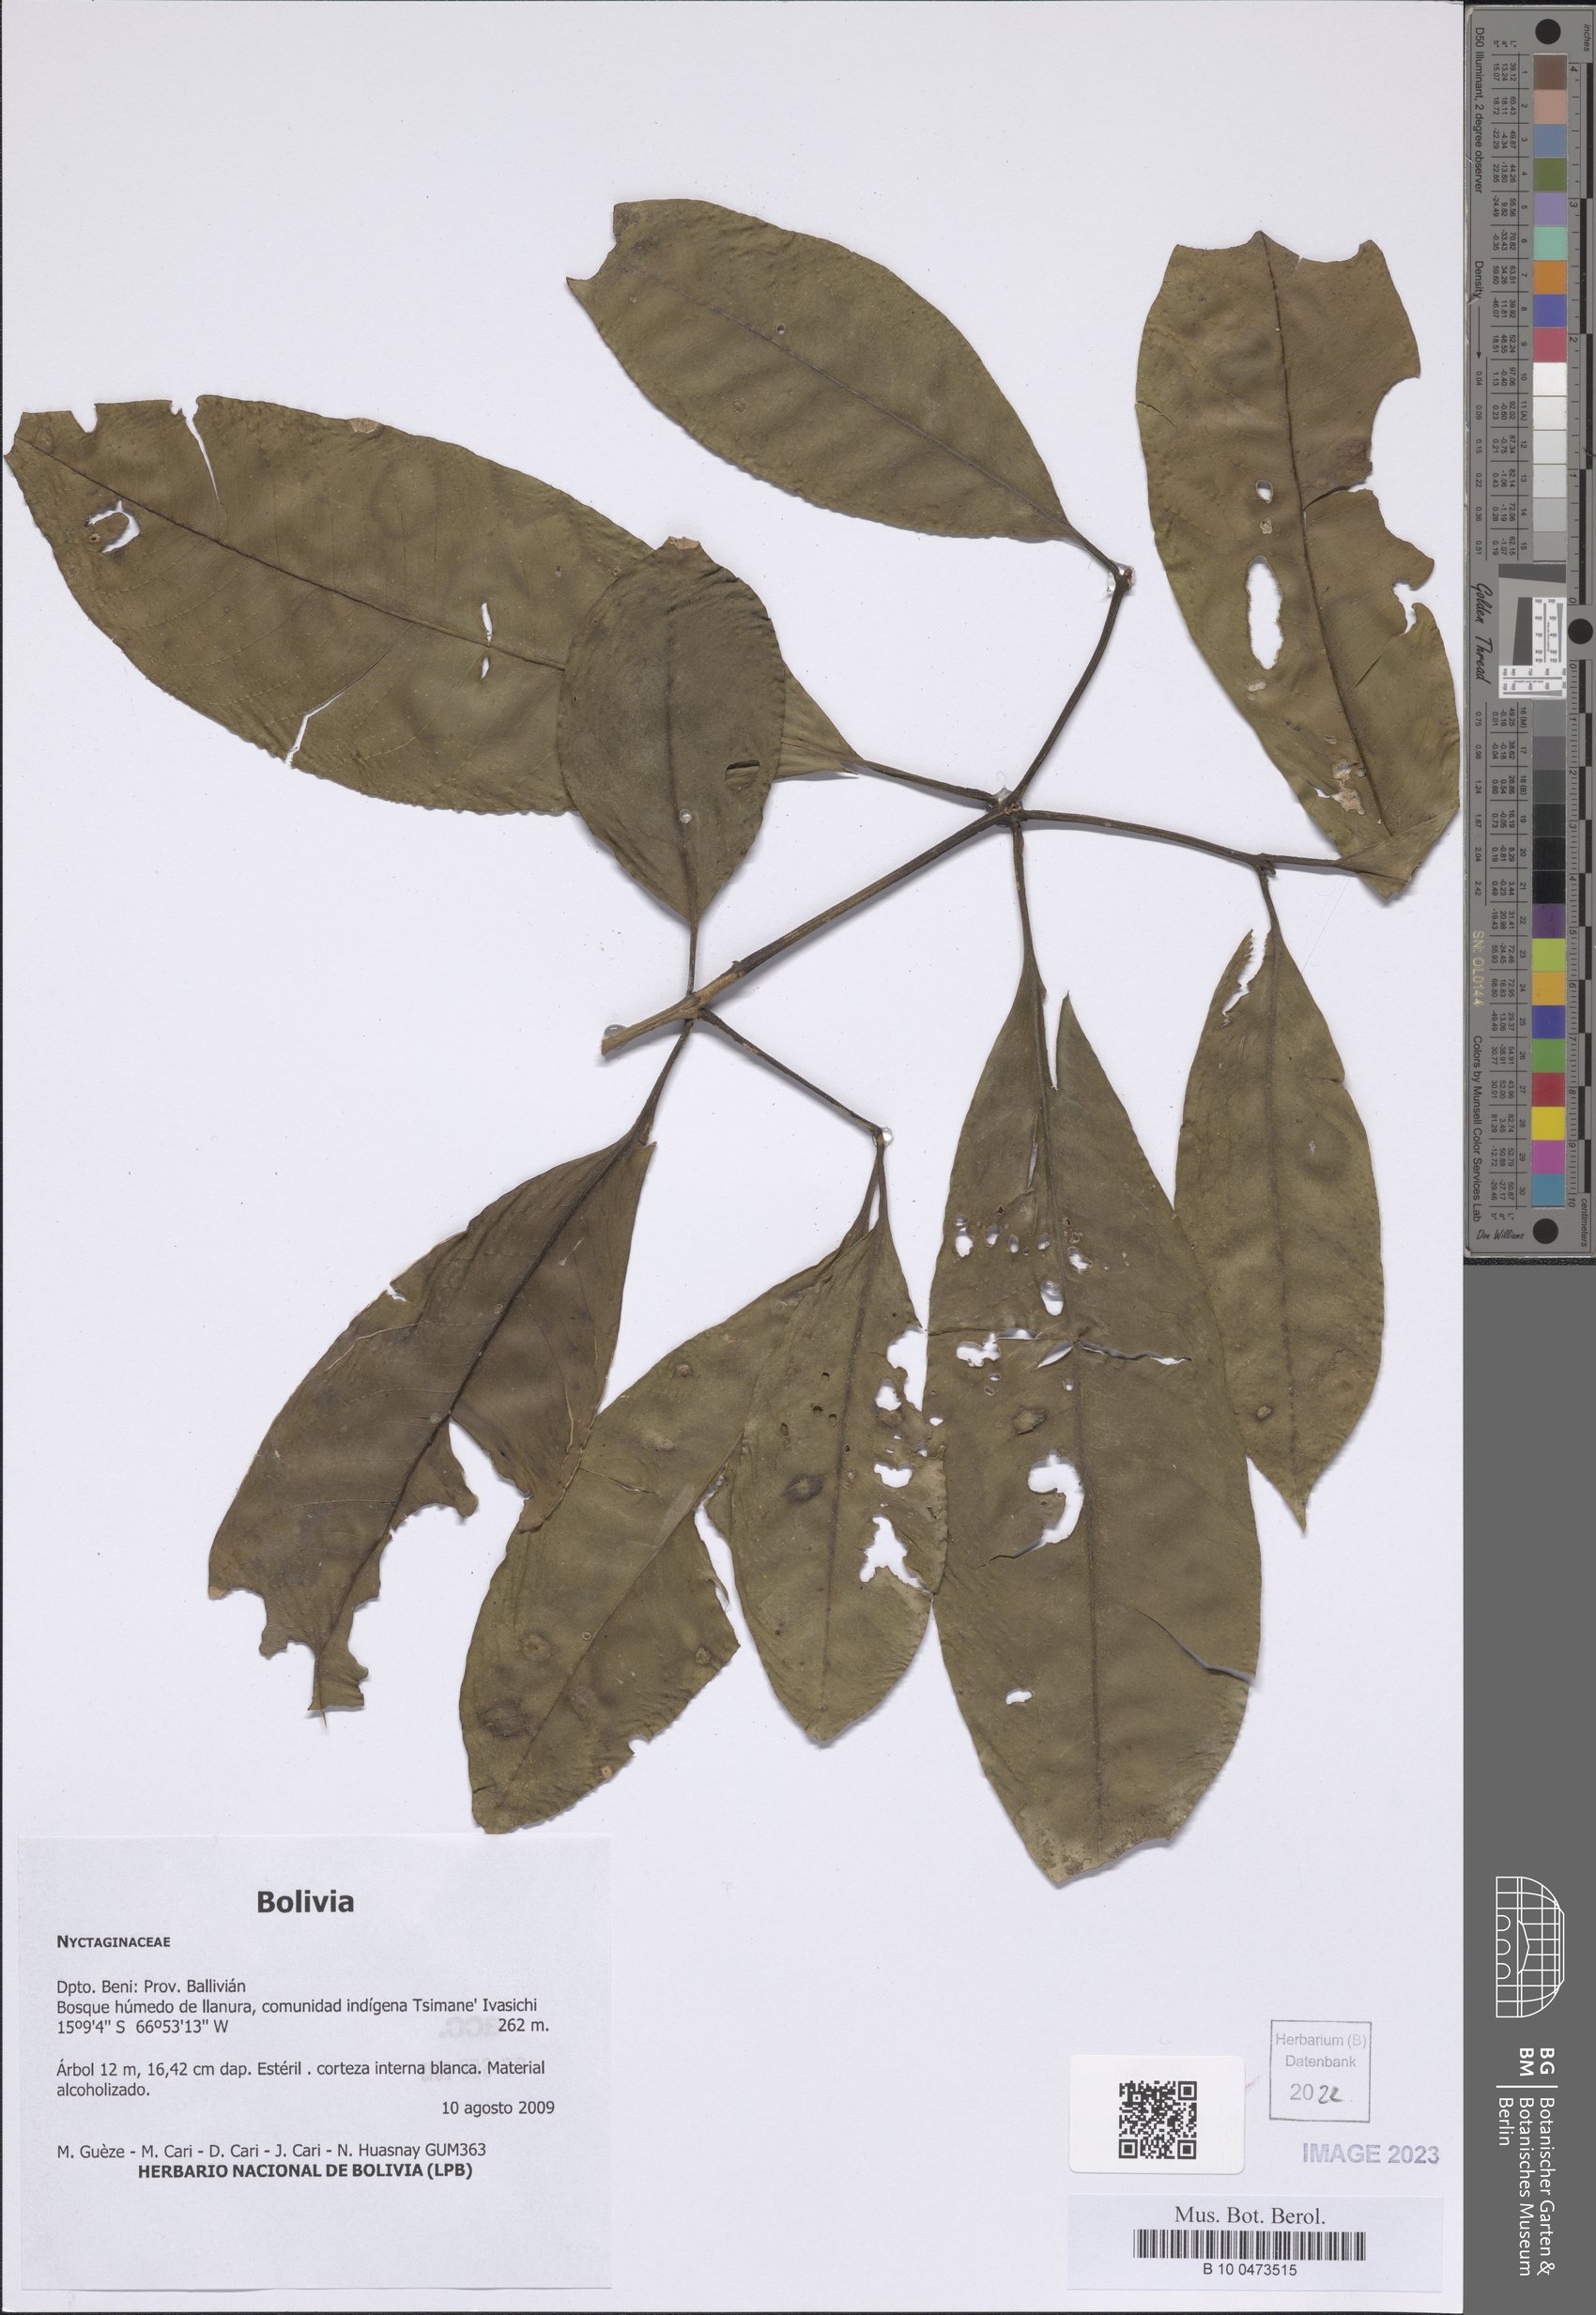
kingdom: Plantae
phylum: Tracheophyta
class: Magnoliopsida
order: Caryophyllales
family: Nyctaginaceae
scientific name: Nyctaginaceae
